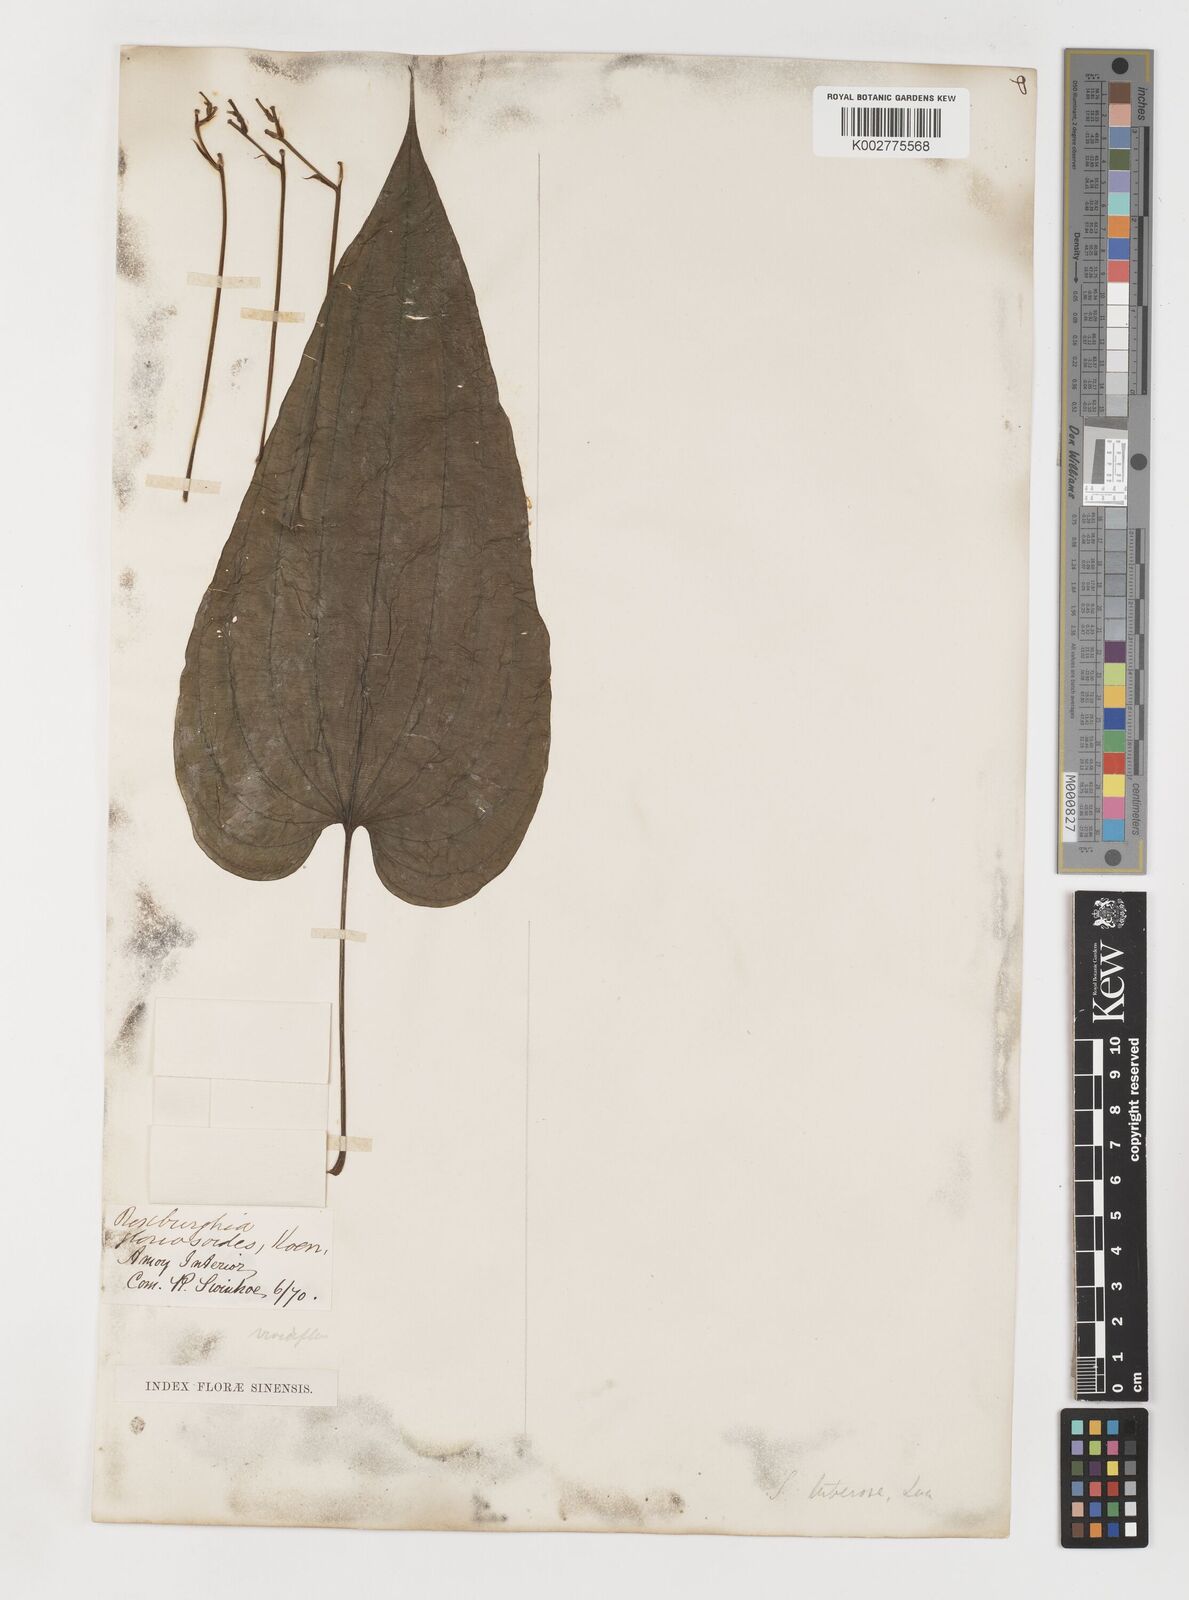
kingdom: Plantae
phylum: Tracheophyta
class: Liliopsida
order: Pandanales
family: Stemonaceae
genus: Stemona
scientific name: Stemona tuberosa
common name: Stemona
